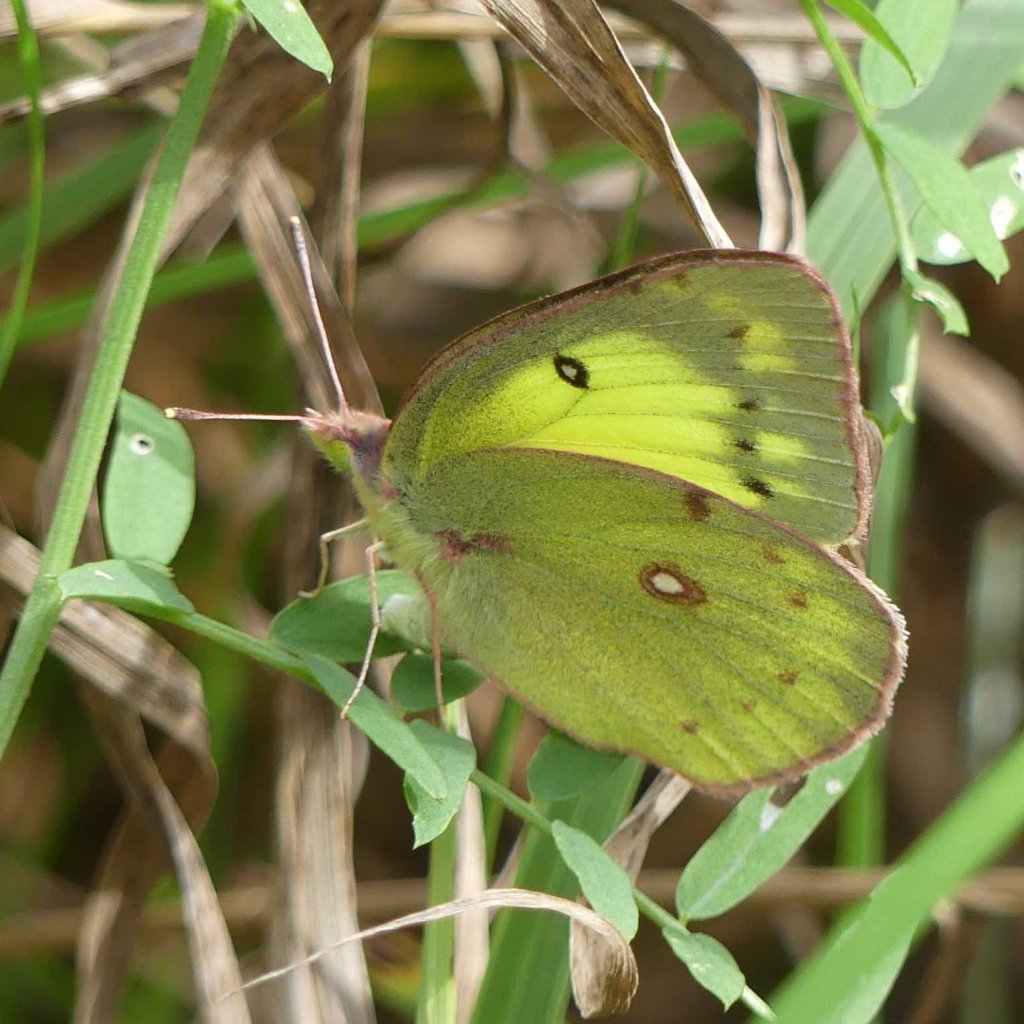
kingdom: Animalia
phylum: Arthropoda
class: Insecta
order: Lepidoptera
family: Pieridae
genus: Colias
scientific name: Colias philodice
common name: Clouded Sulphur
